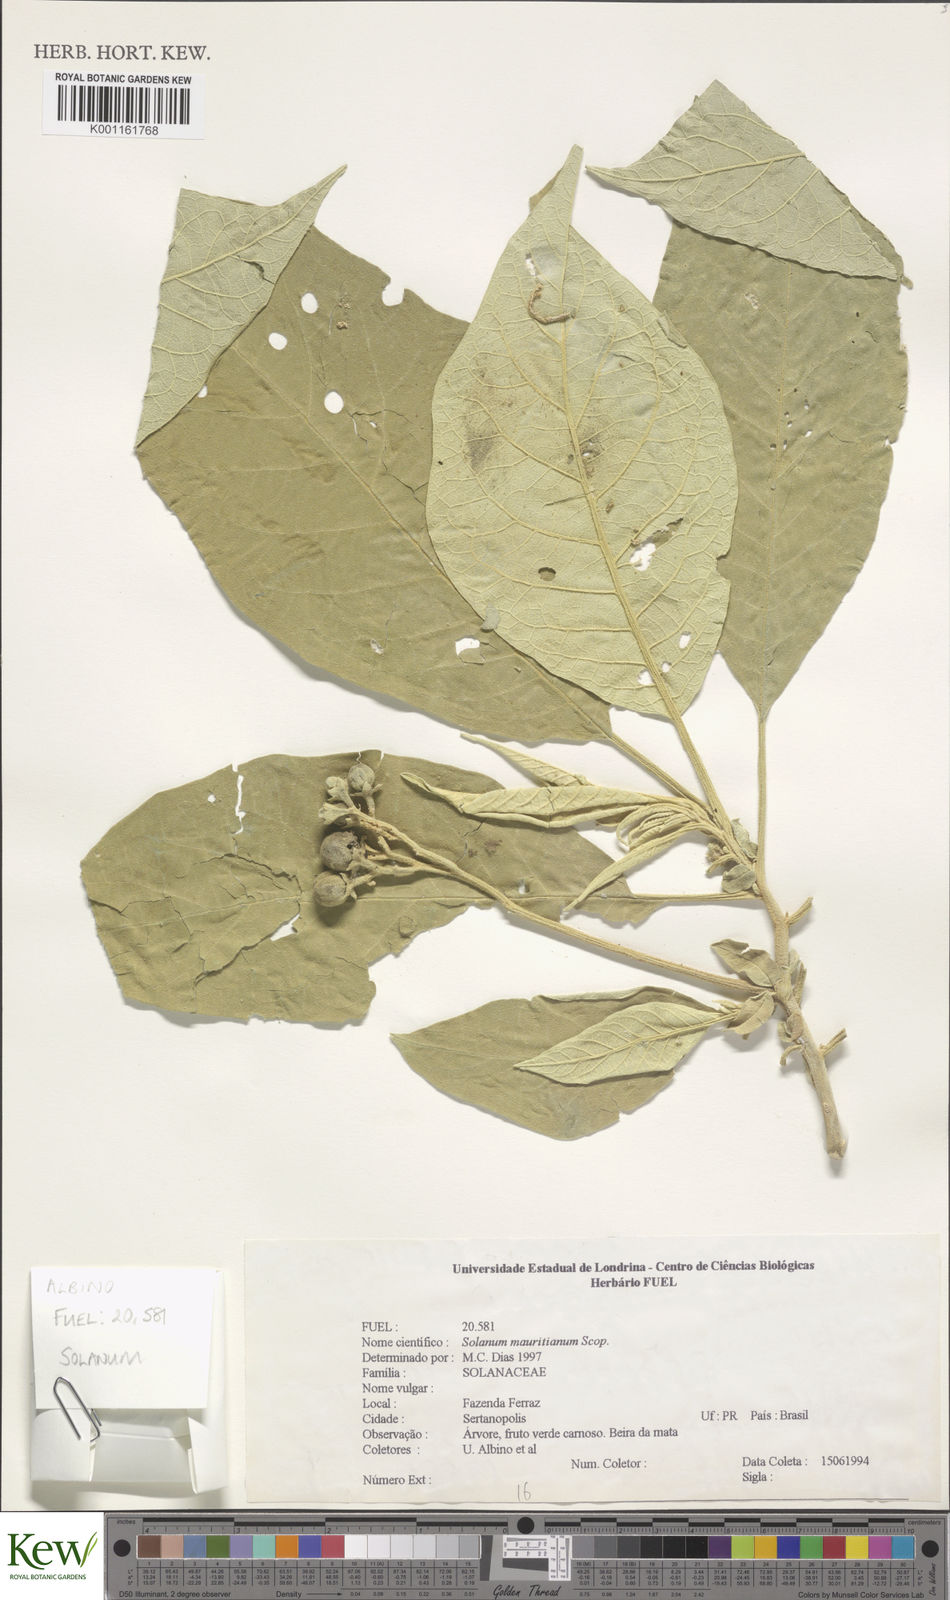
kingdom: Plantae
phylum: Tracheophyta
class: Magnoliopsida
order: Solanales
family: Solanaceae
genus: Solanum
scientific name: Solanum mauritianum
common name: Earleaf nightshade
